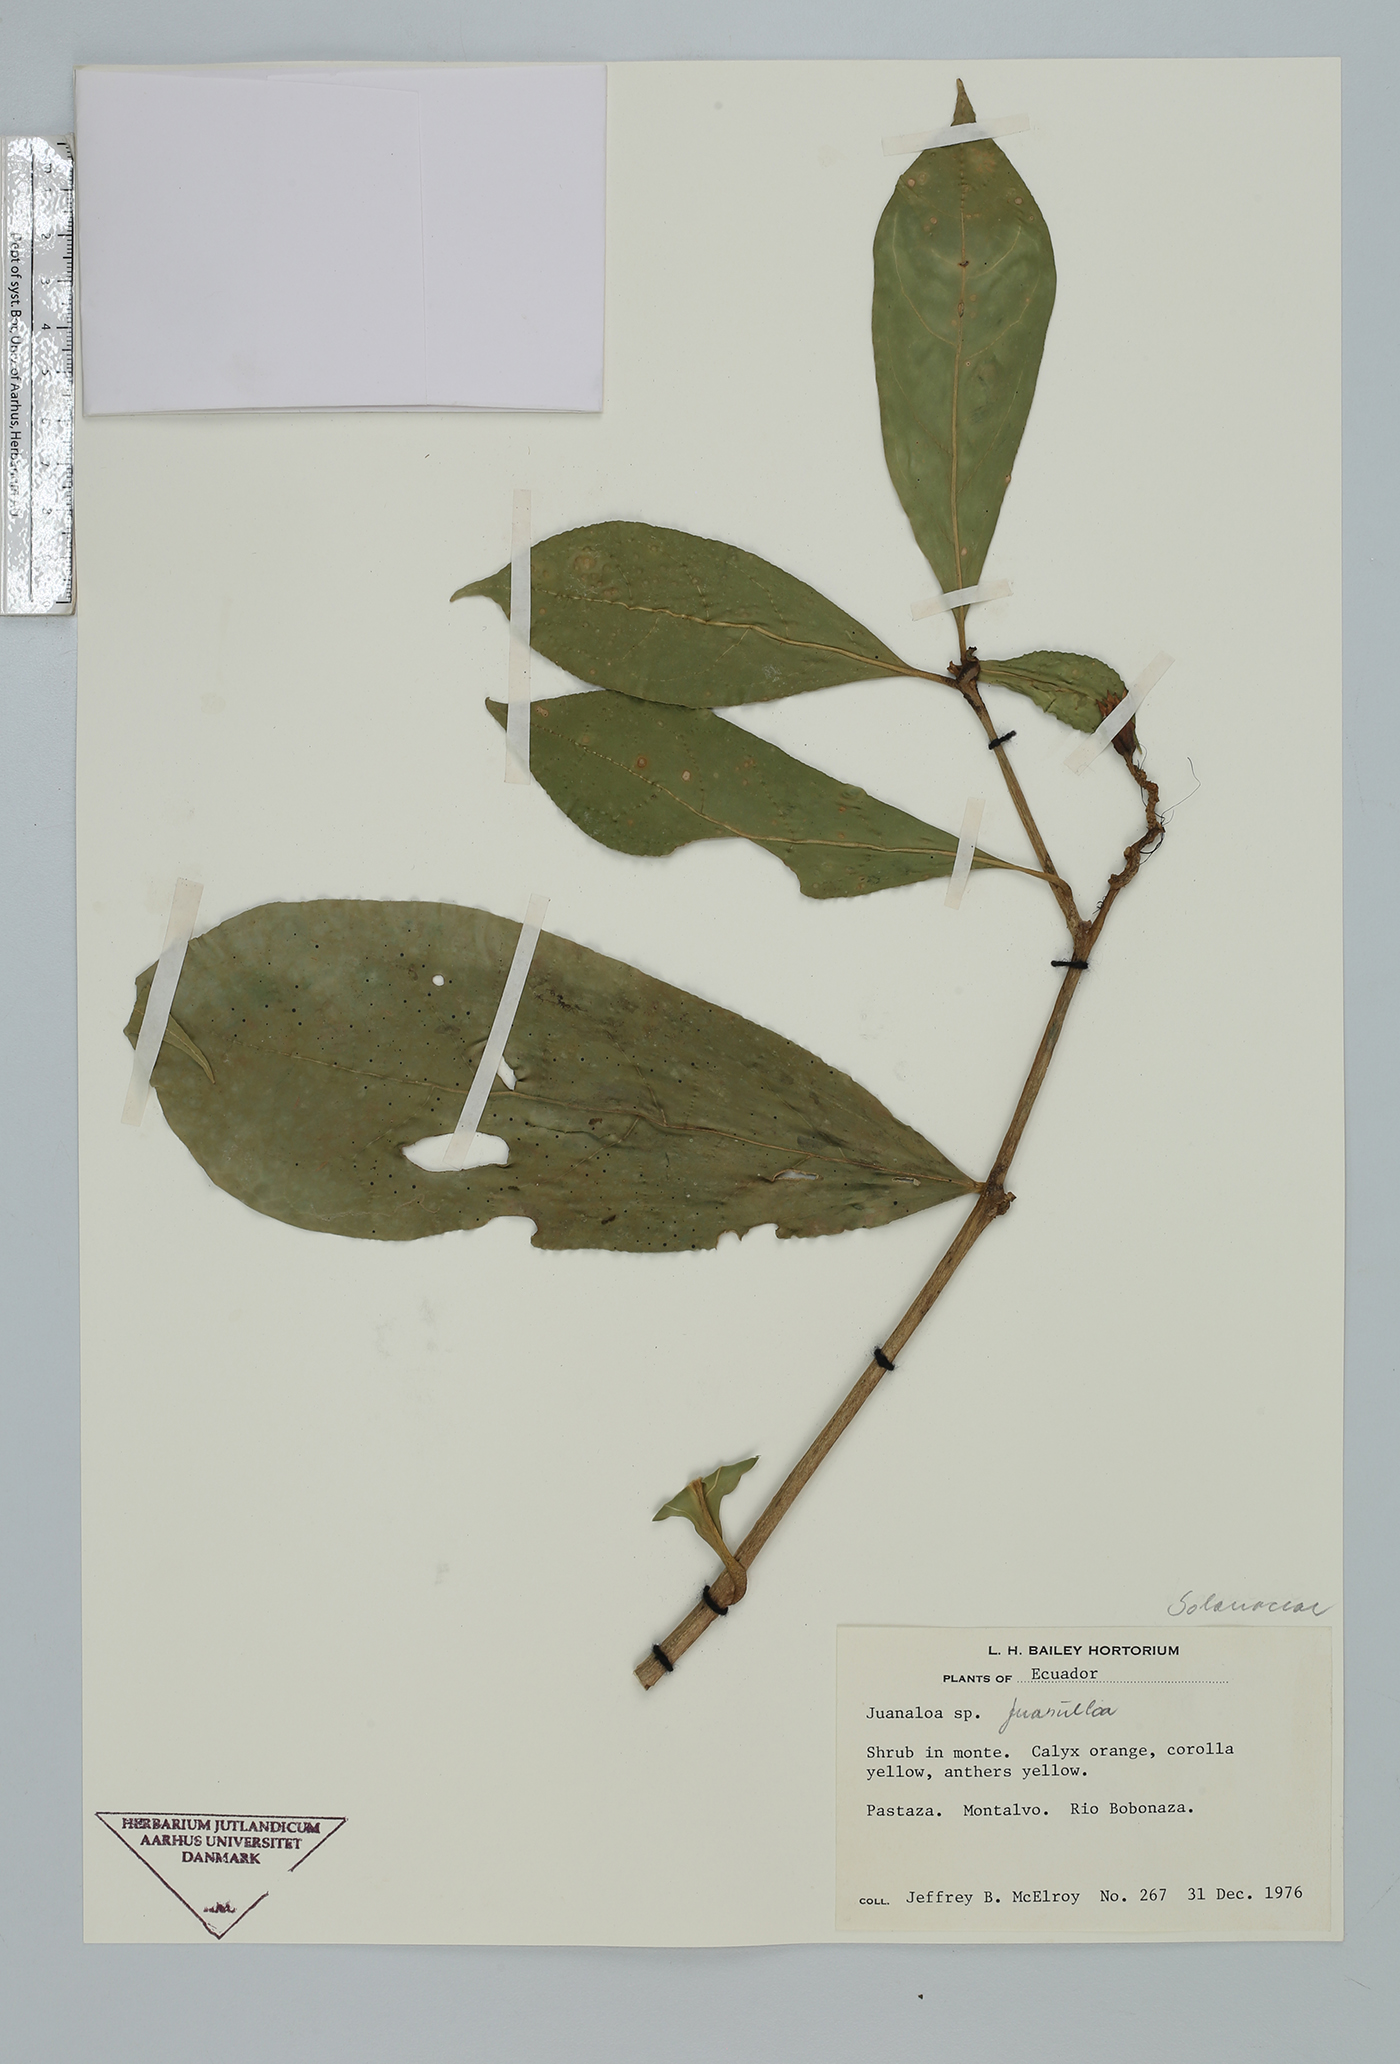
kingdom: Plantae
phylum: Tracheophyta
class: Magnoliopsida
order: Solanales
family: Solanaceae
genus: Hawkesiophyton
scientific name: Hawkesiophyton ochraceum
